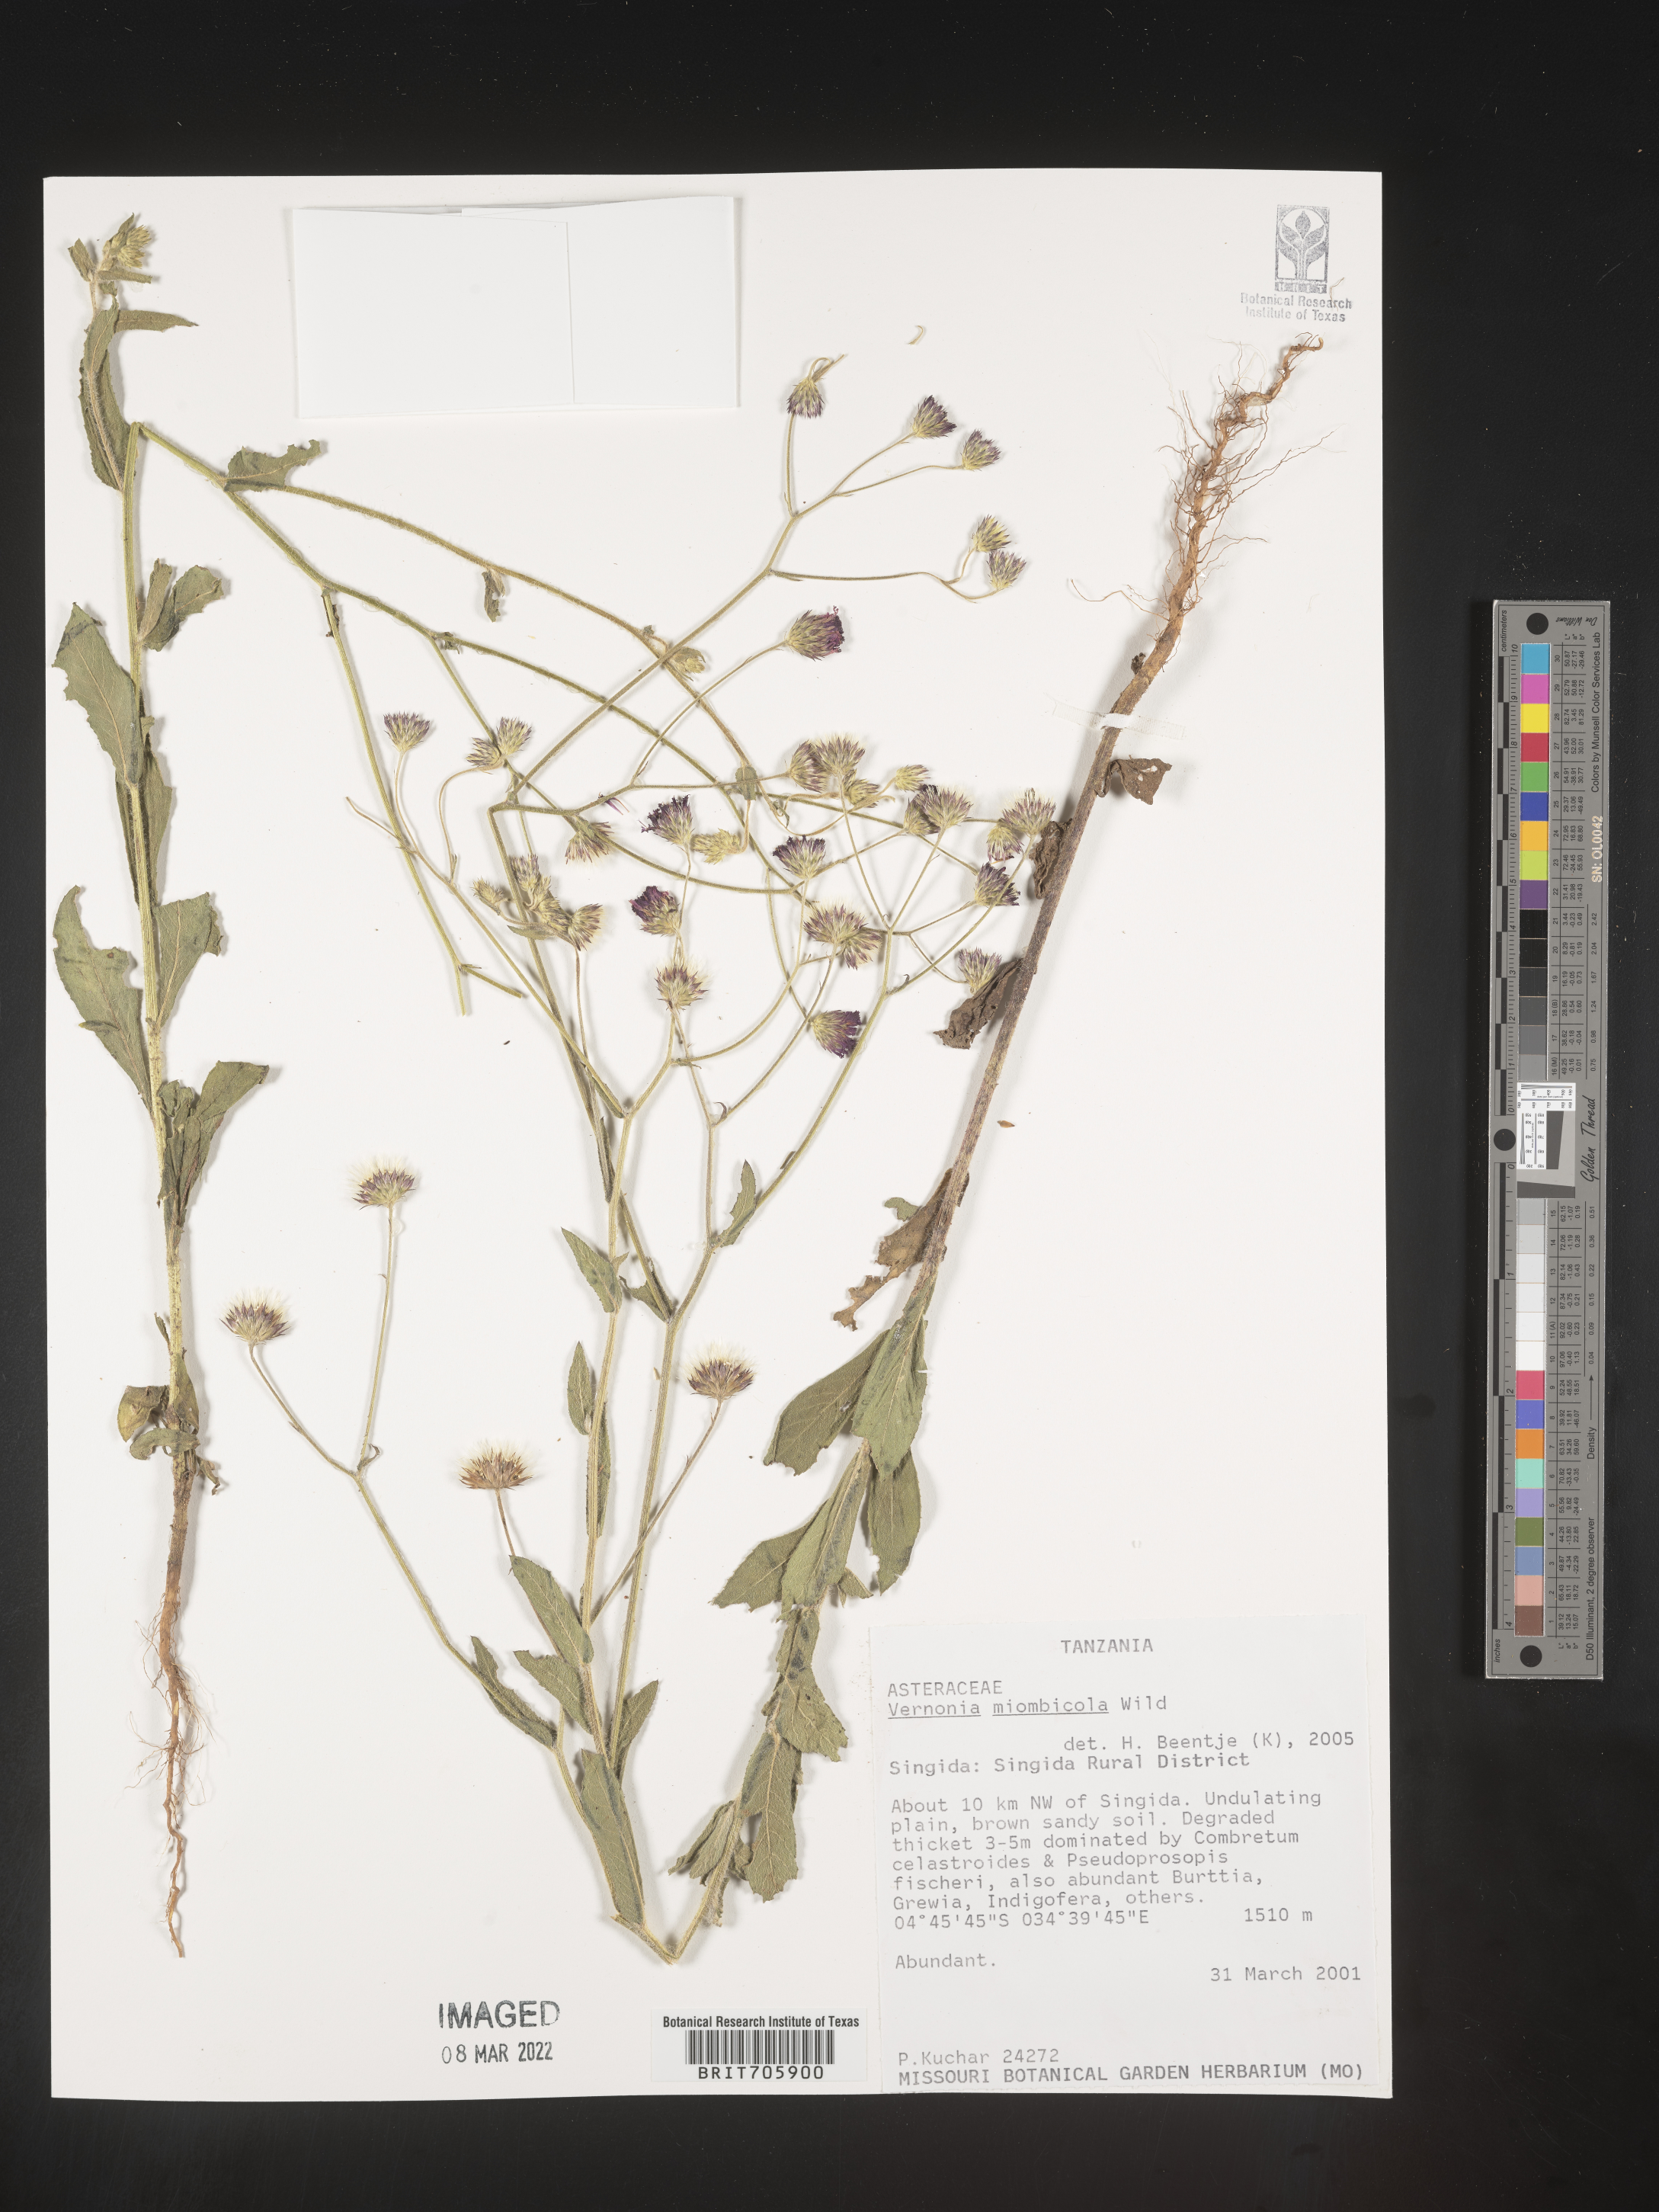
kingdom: Plantae
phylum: Tracheophyta
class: Magnoliopsida
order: Asterales
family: Asteraceae
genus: Vernonia
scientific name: Vernonia
